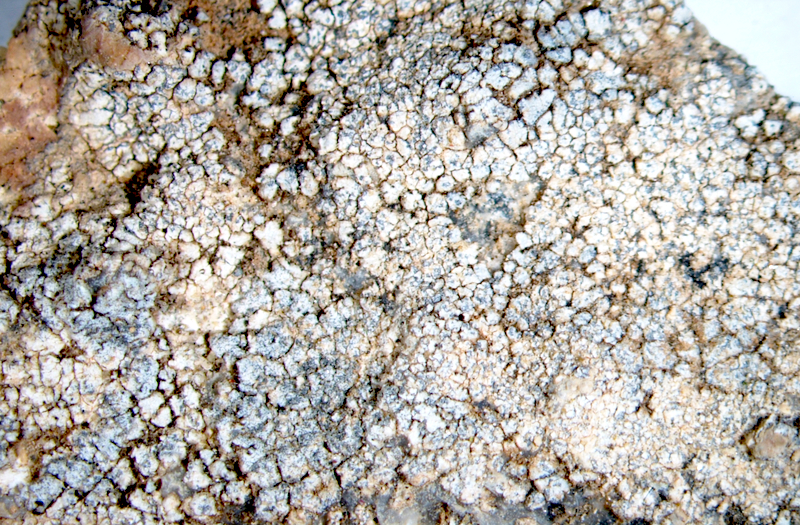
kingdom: Fungi
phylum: Ascomycota
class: Lecanoromycetes
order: Caliciales
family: Caliciaceae
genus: Buellia
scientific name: Buellia
